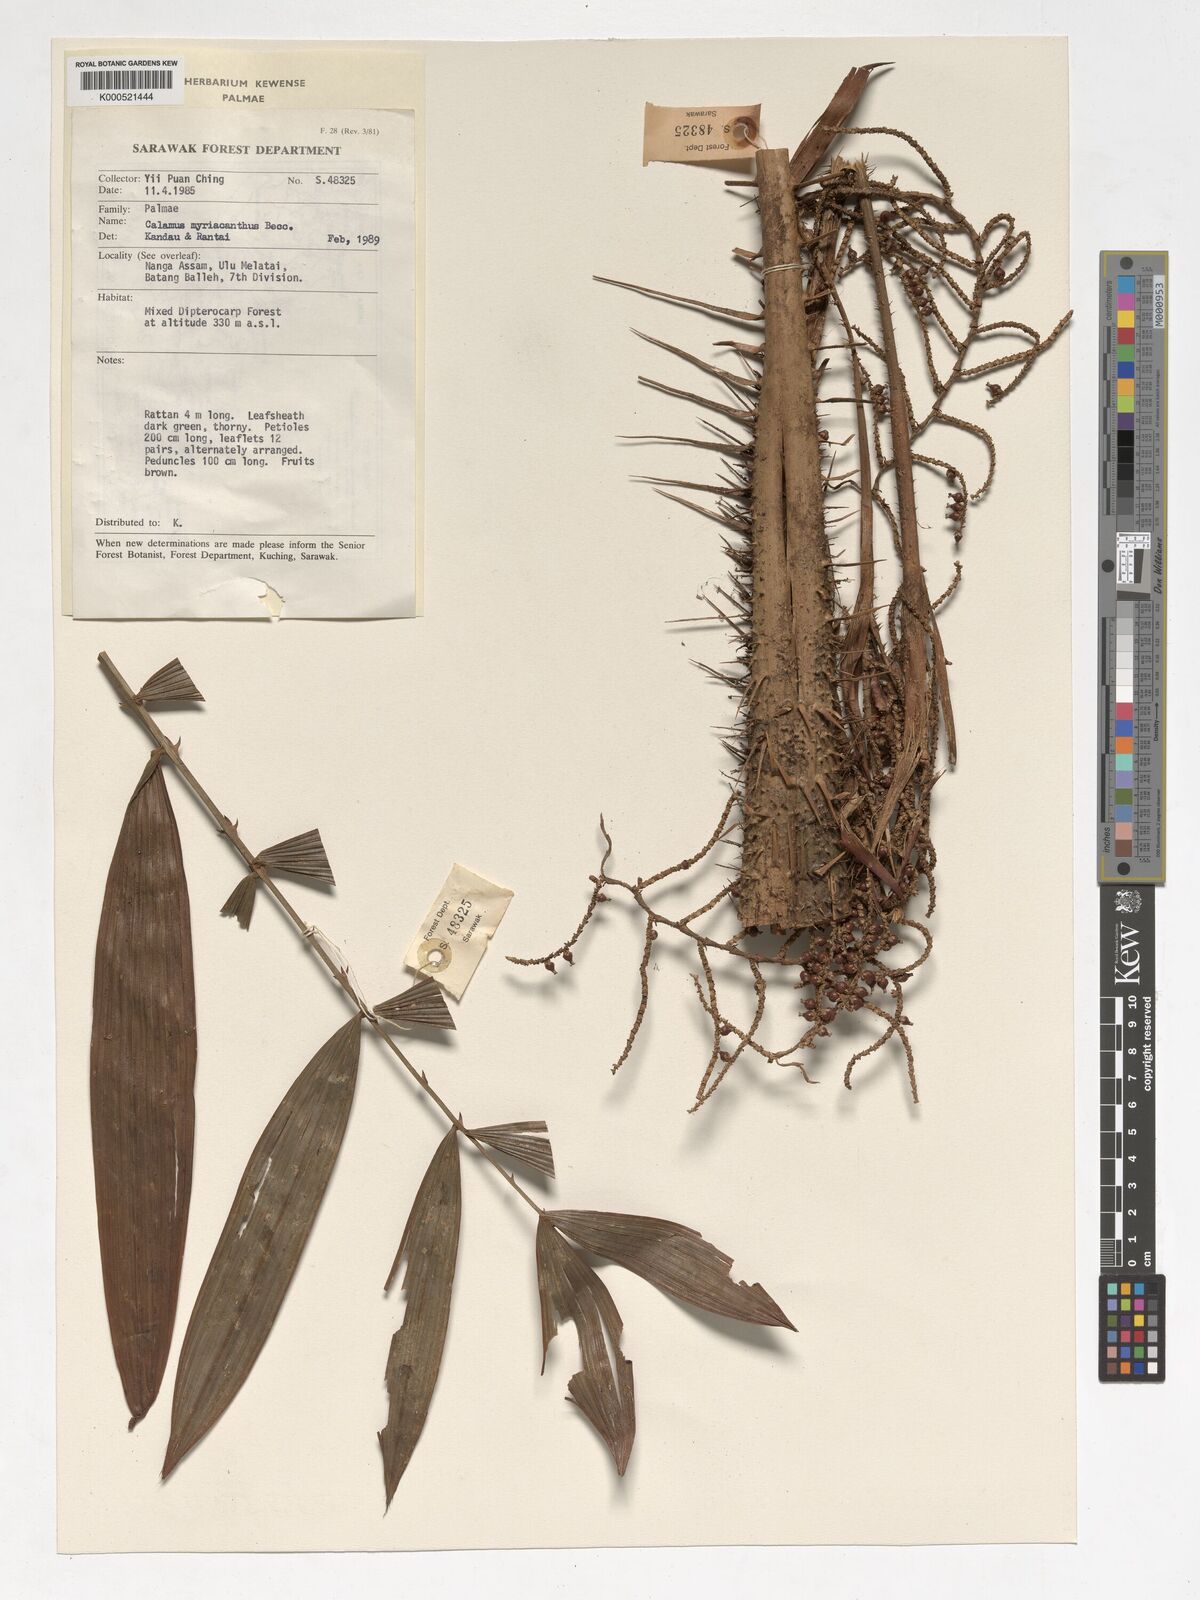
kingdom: Plantae
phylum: Tracheophyta
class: Liliopsida
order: Arecales
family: Arecaceae
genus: Calamus
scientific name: Calamus myriacanthus
